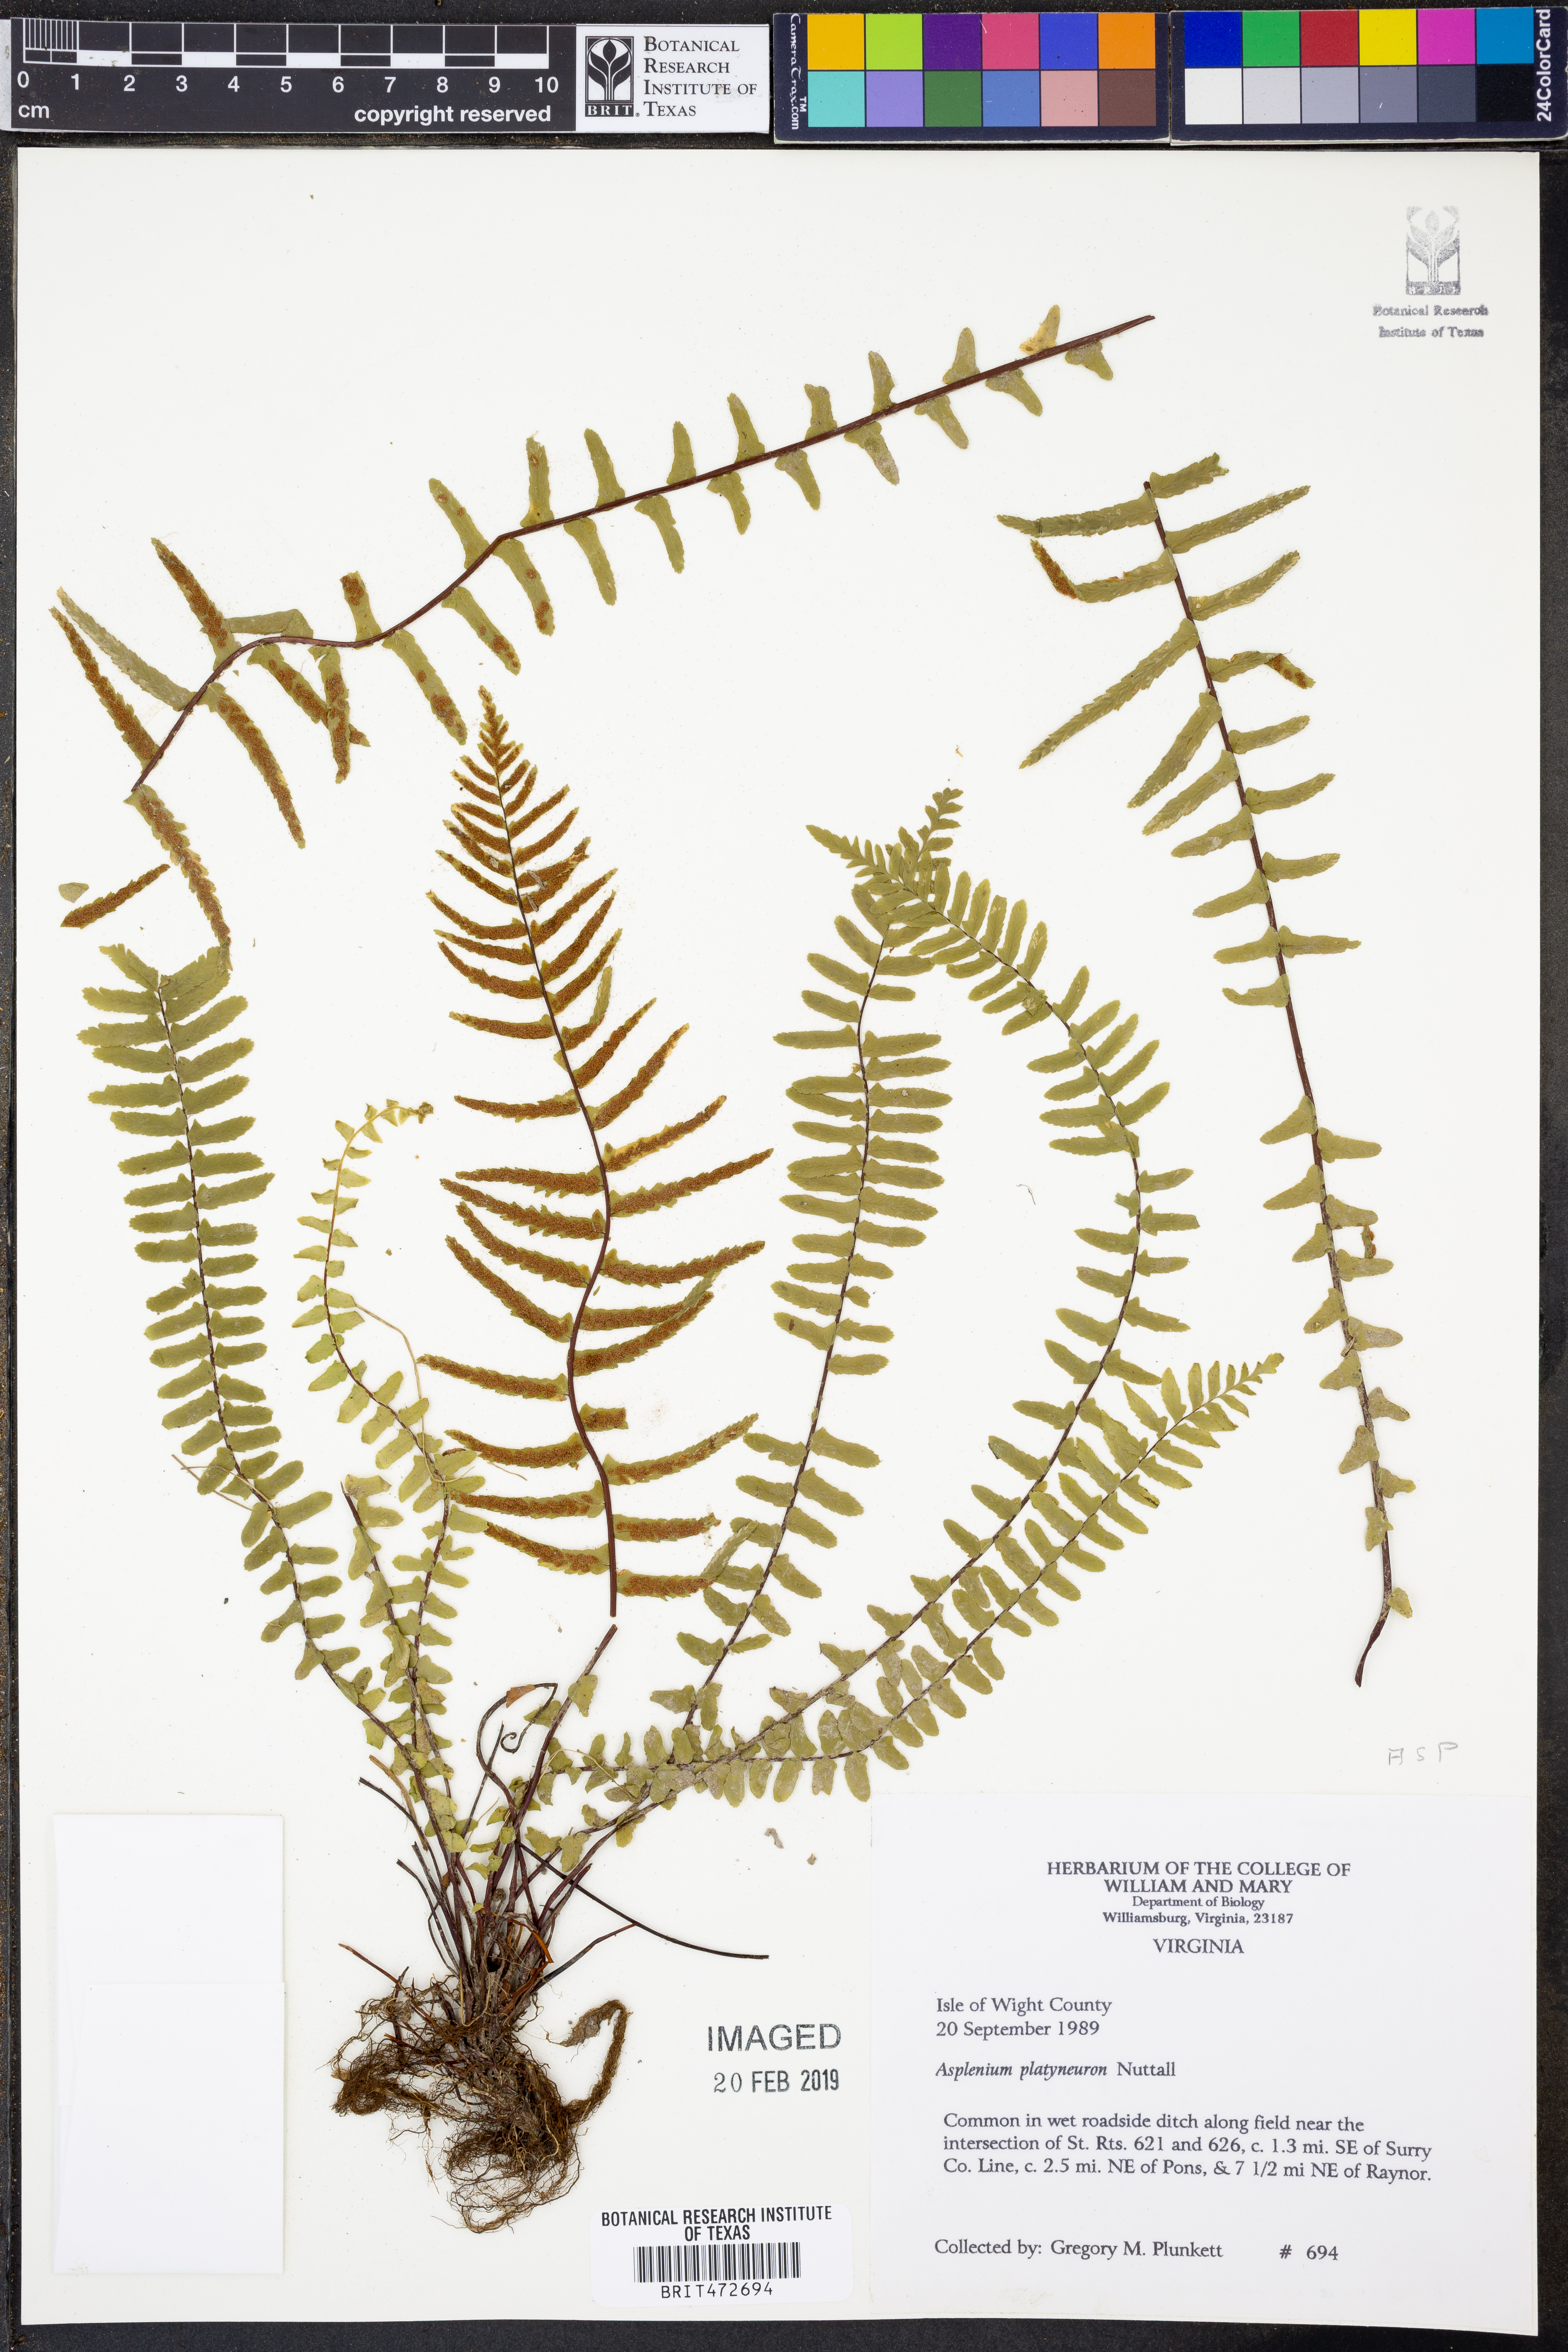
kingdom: Plantae
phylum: Tracheophyta
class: Polypodiopsida
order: Polypodiales
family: Aspleniaceae
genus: Asplenium
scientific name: Asplenium platyneuron
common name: Ebony spleenwort
